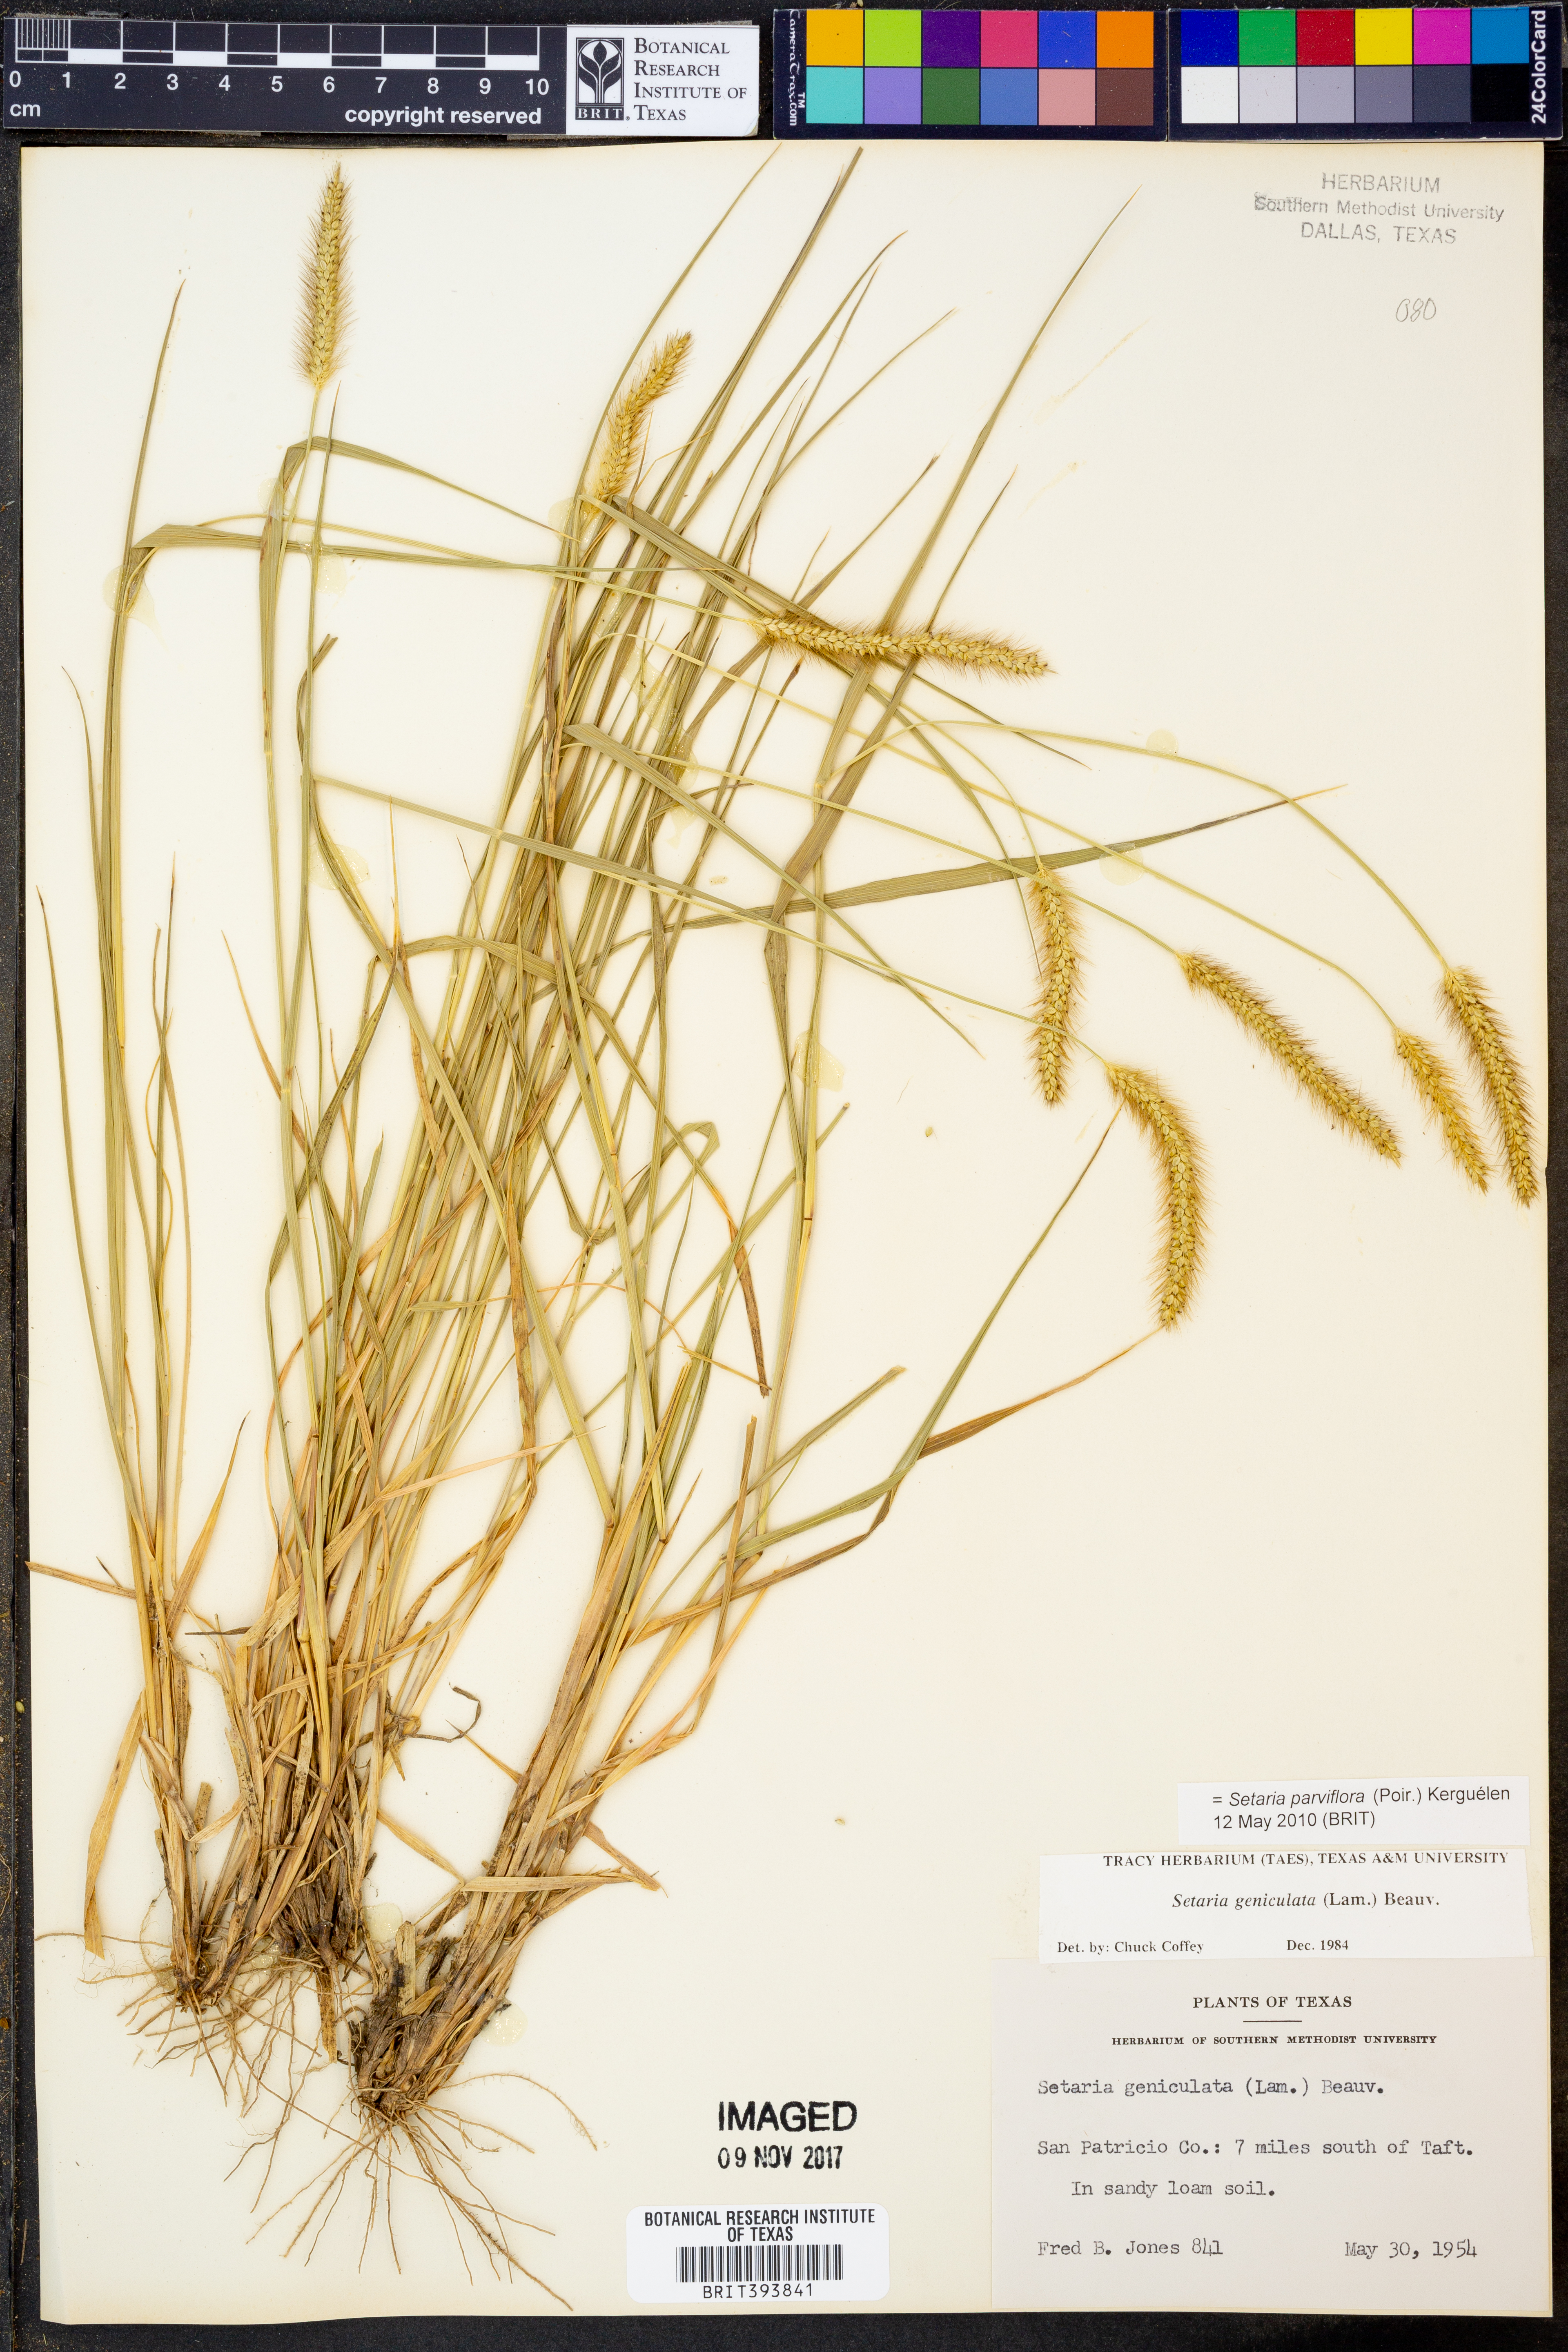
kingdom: Plantae
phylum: Tracheophyta
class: Liliopsida
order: Poales
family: Poaceae
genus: Setaria
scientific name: Setaria parviflora
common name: Knotroot bristle-grass
